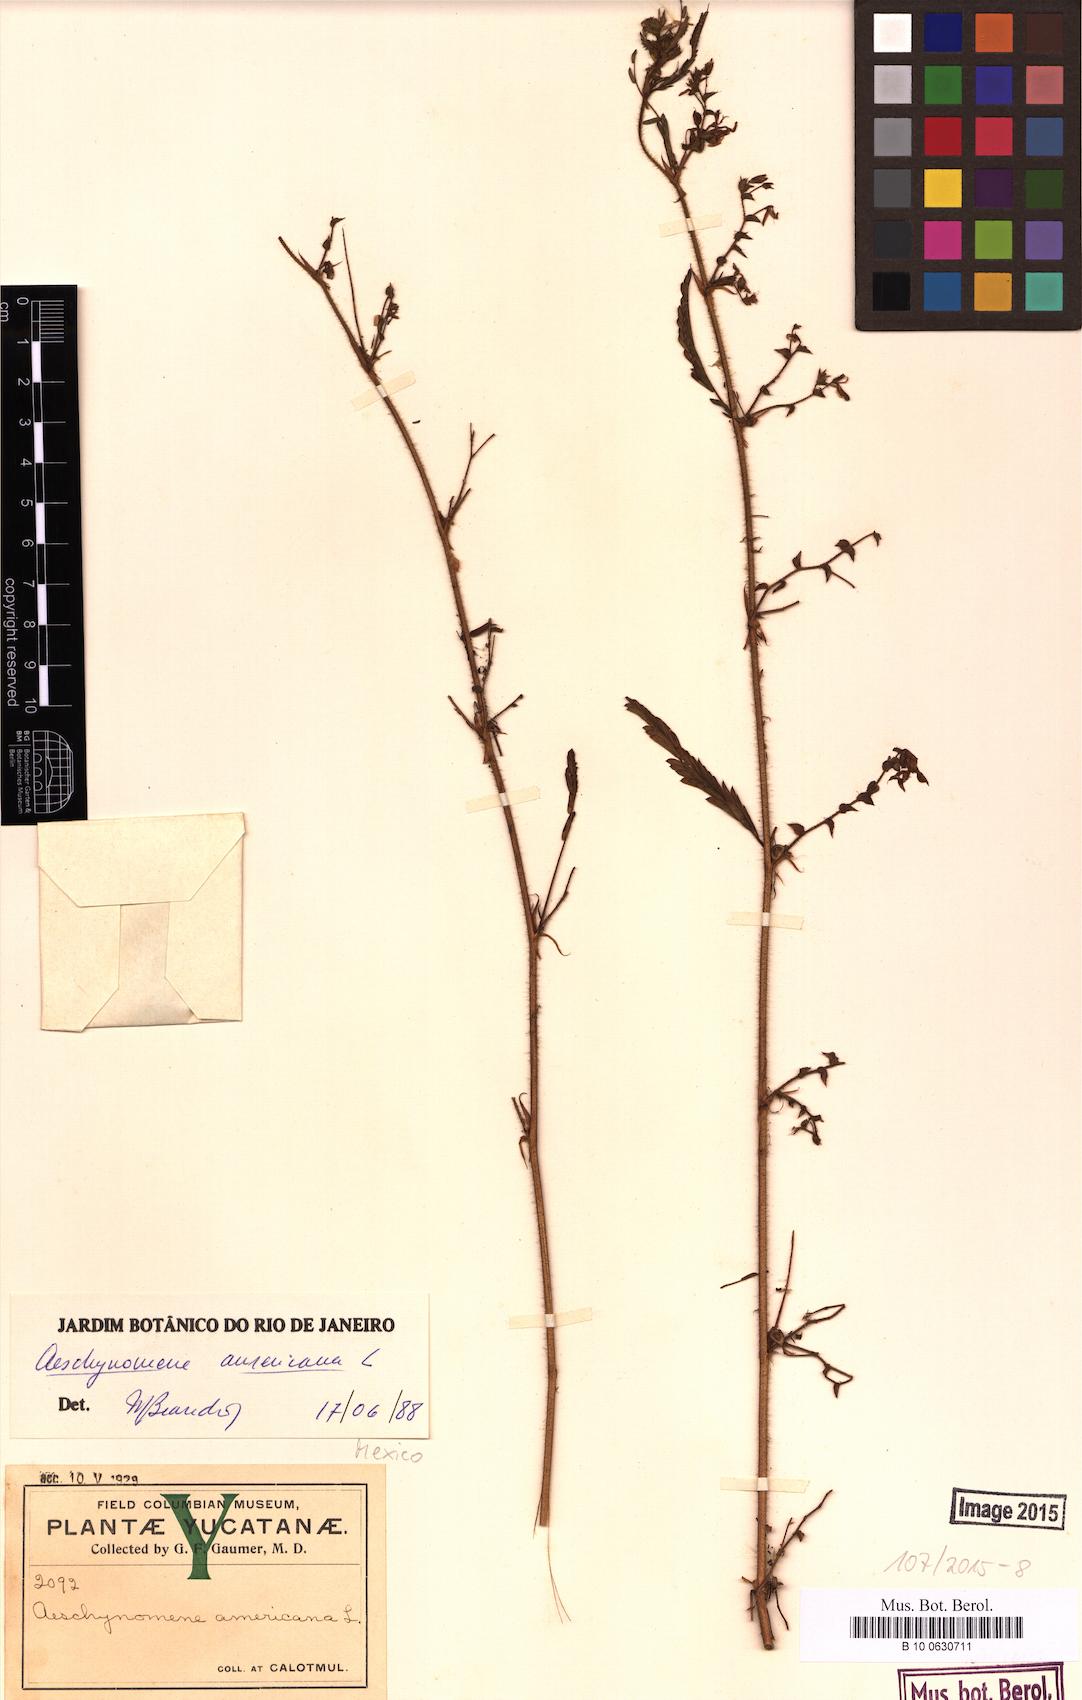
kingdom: Plantae
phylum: Tracheophyta
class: Magnoliopsida
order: Fabales
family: Fabaceae
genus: Aeschynomene
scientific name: Aeschynomene americana
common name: Joint-vetch
